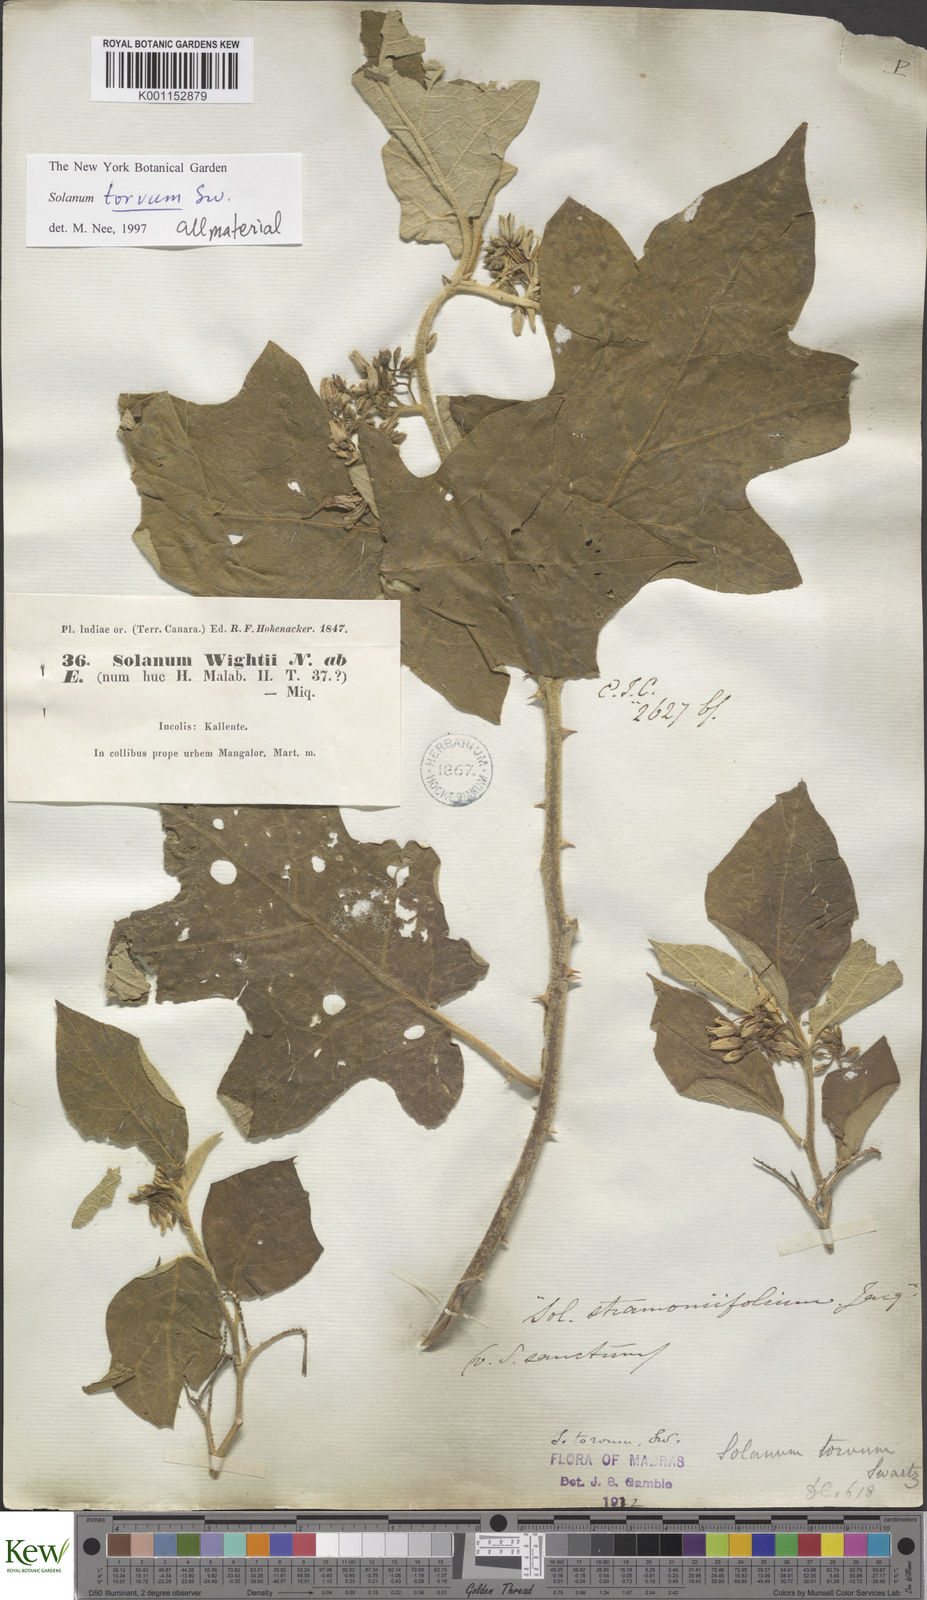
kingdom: Plantae
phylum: Tracheophyta
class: Magnoliopsida
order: Solanales
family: Solanaceae
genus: Solanum
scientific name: Solanum torvum
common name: Turkey berry
